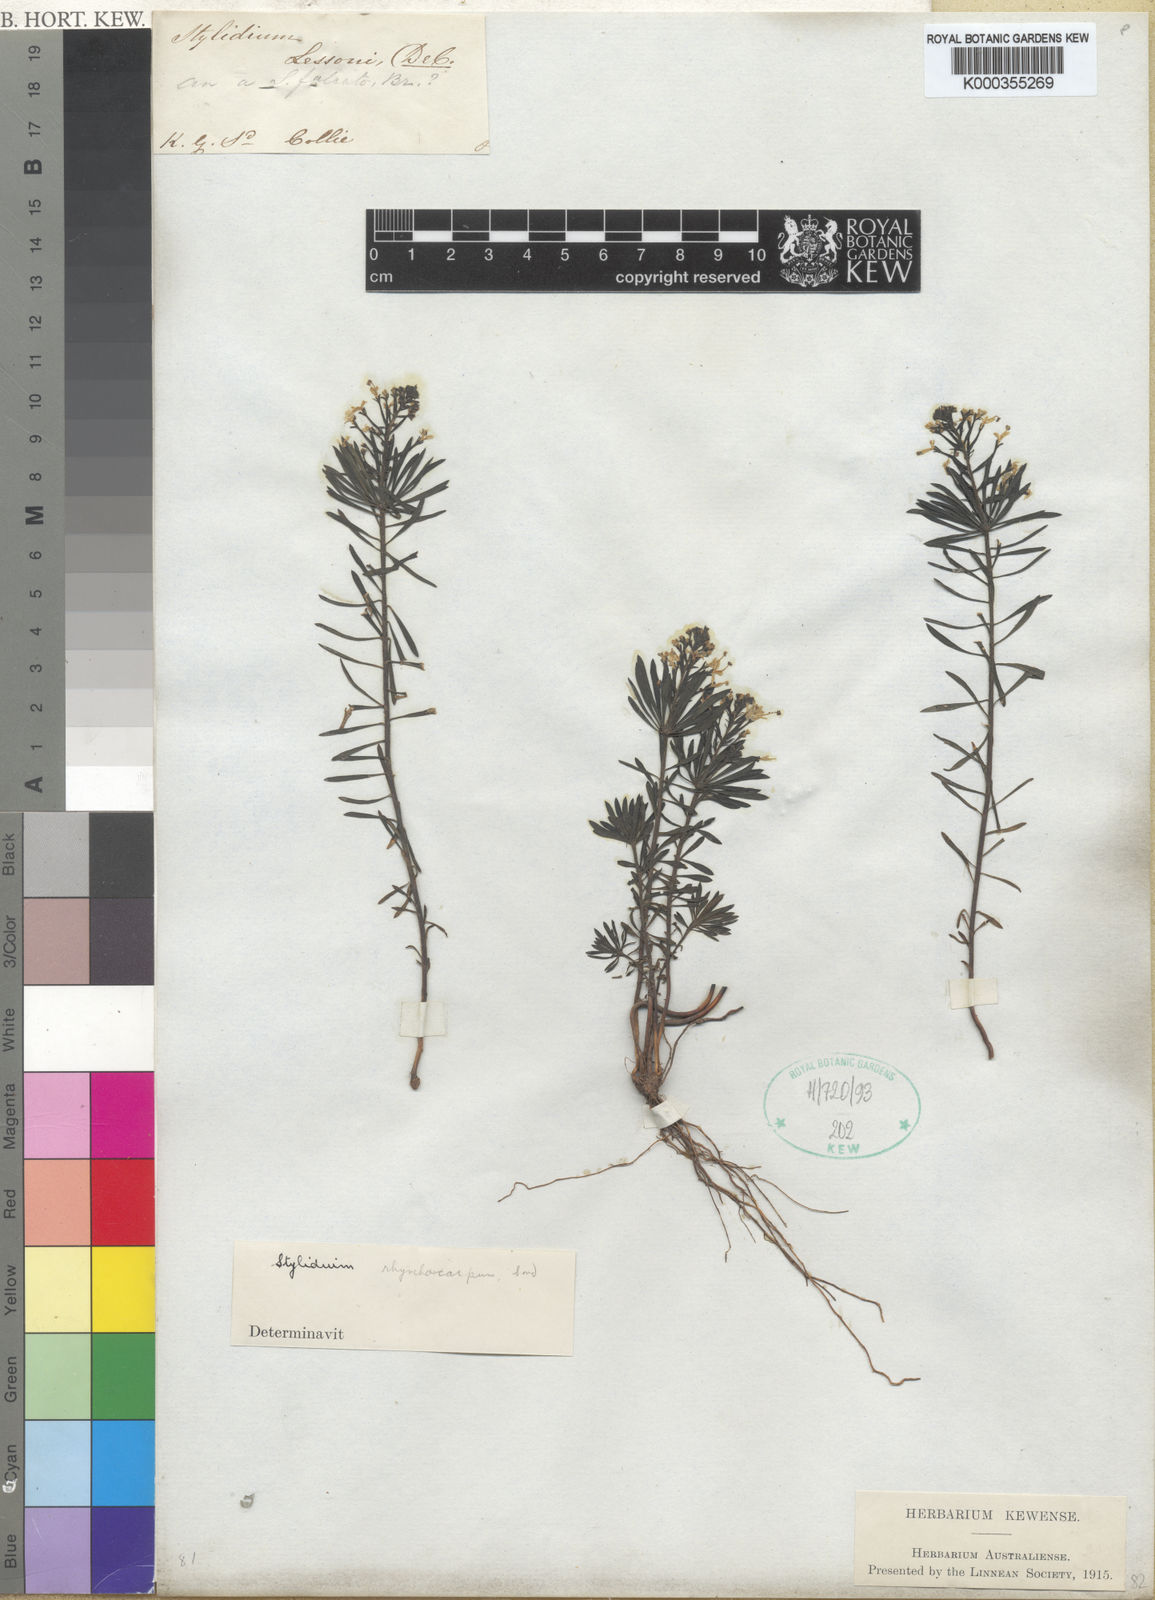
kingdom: Plantae
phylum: Tracheophyta
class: Magnoliopsida
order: Asterales
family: Stylidiaceae
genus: Stylidium
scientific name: Stylidium rhynchocarpum
